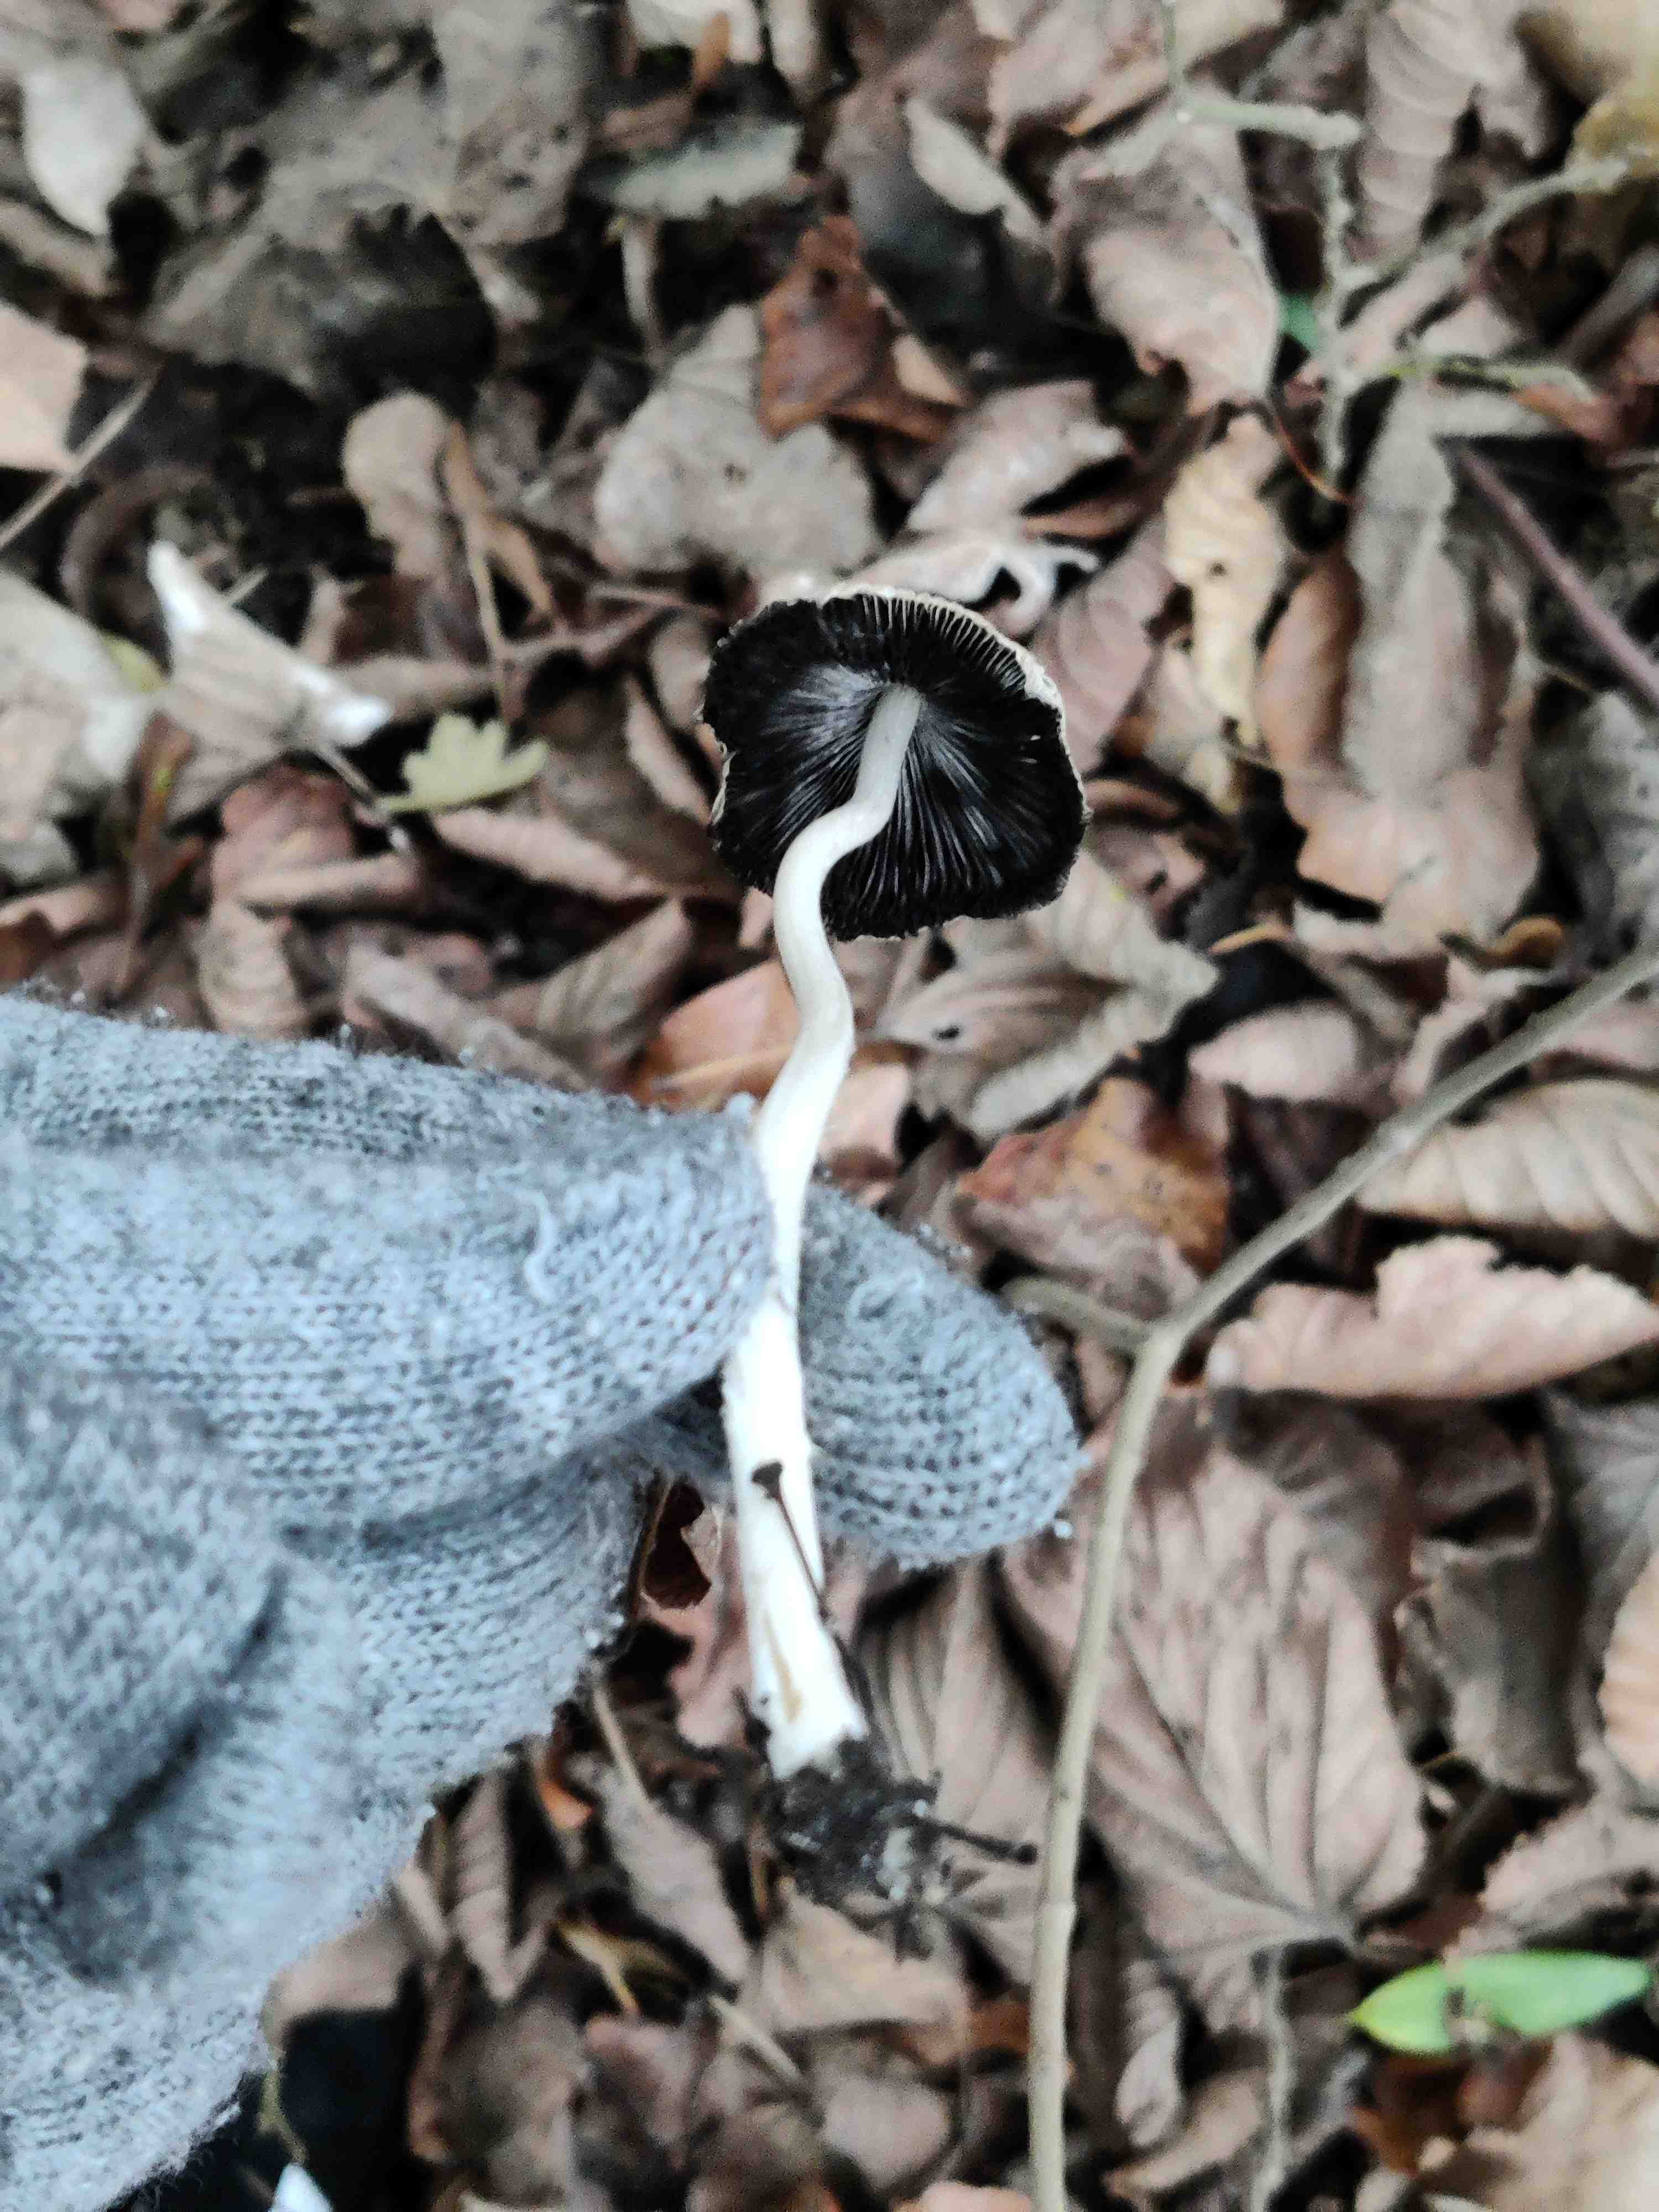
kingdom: Fungi
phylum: Basidiomycota
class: Agaricomycetes
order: Agaricales
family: Psathyrellaceae
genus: Coprinellus
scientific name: Coprinellus
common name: blækhat
